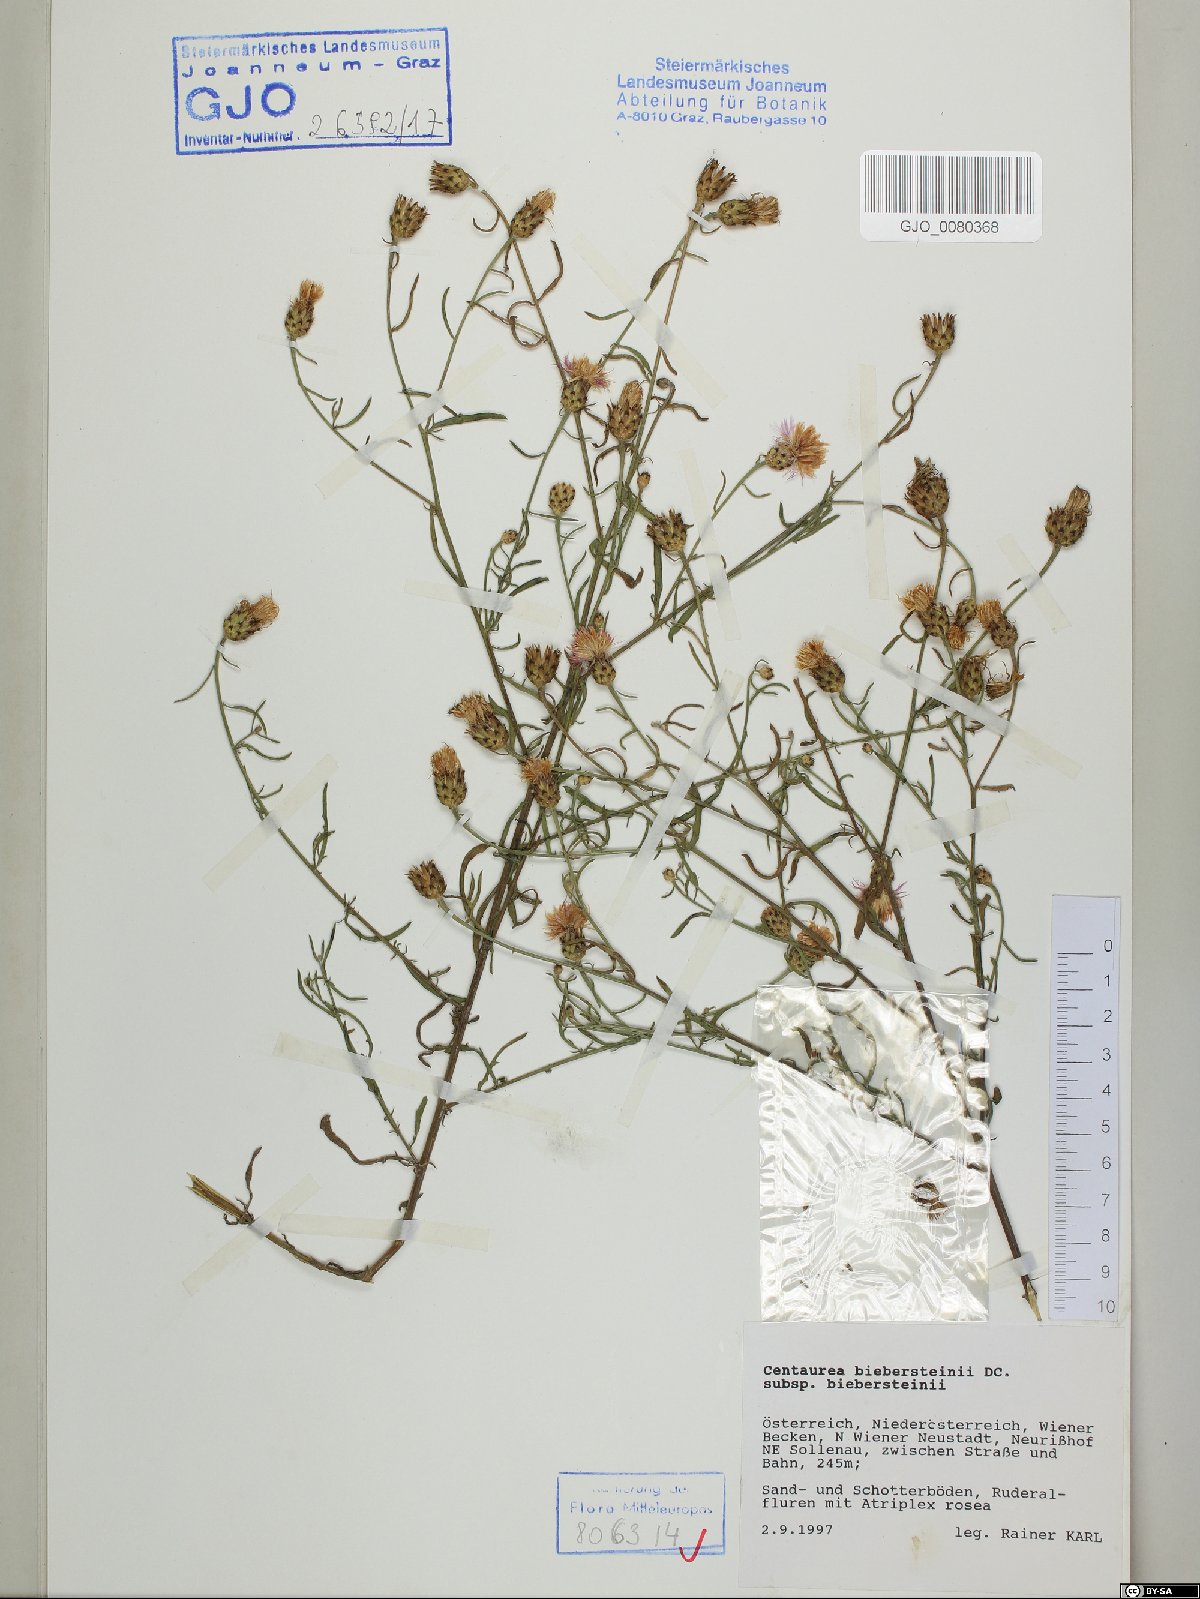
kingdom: Plantae
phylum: Tracheophyta
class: Magnoliopsida
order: Asterales
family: Asteraceae
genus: Centaurea
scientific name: Centaurea stoebe
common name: Spotted knapweed
